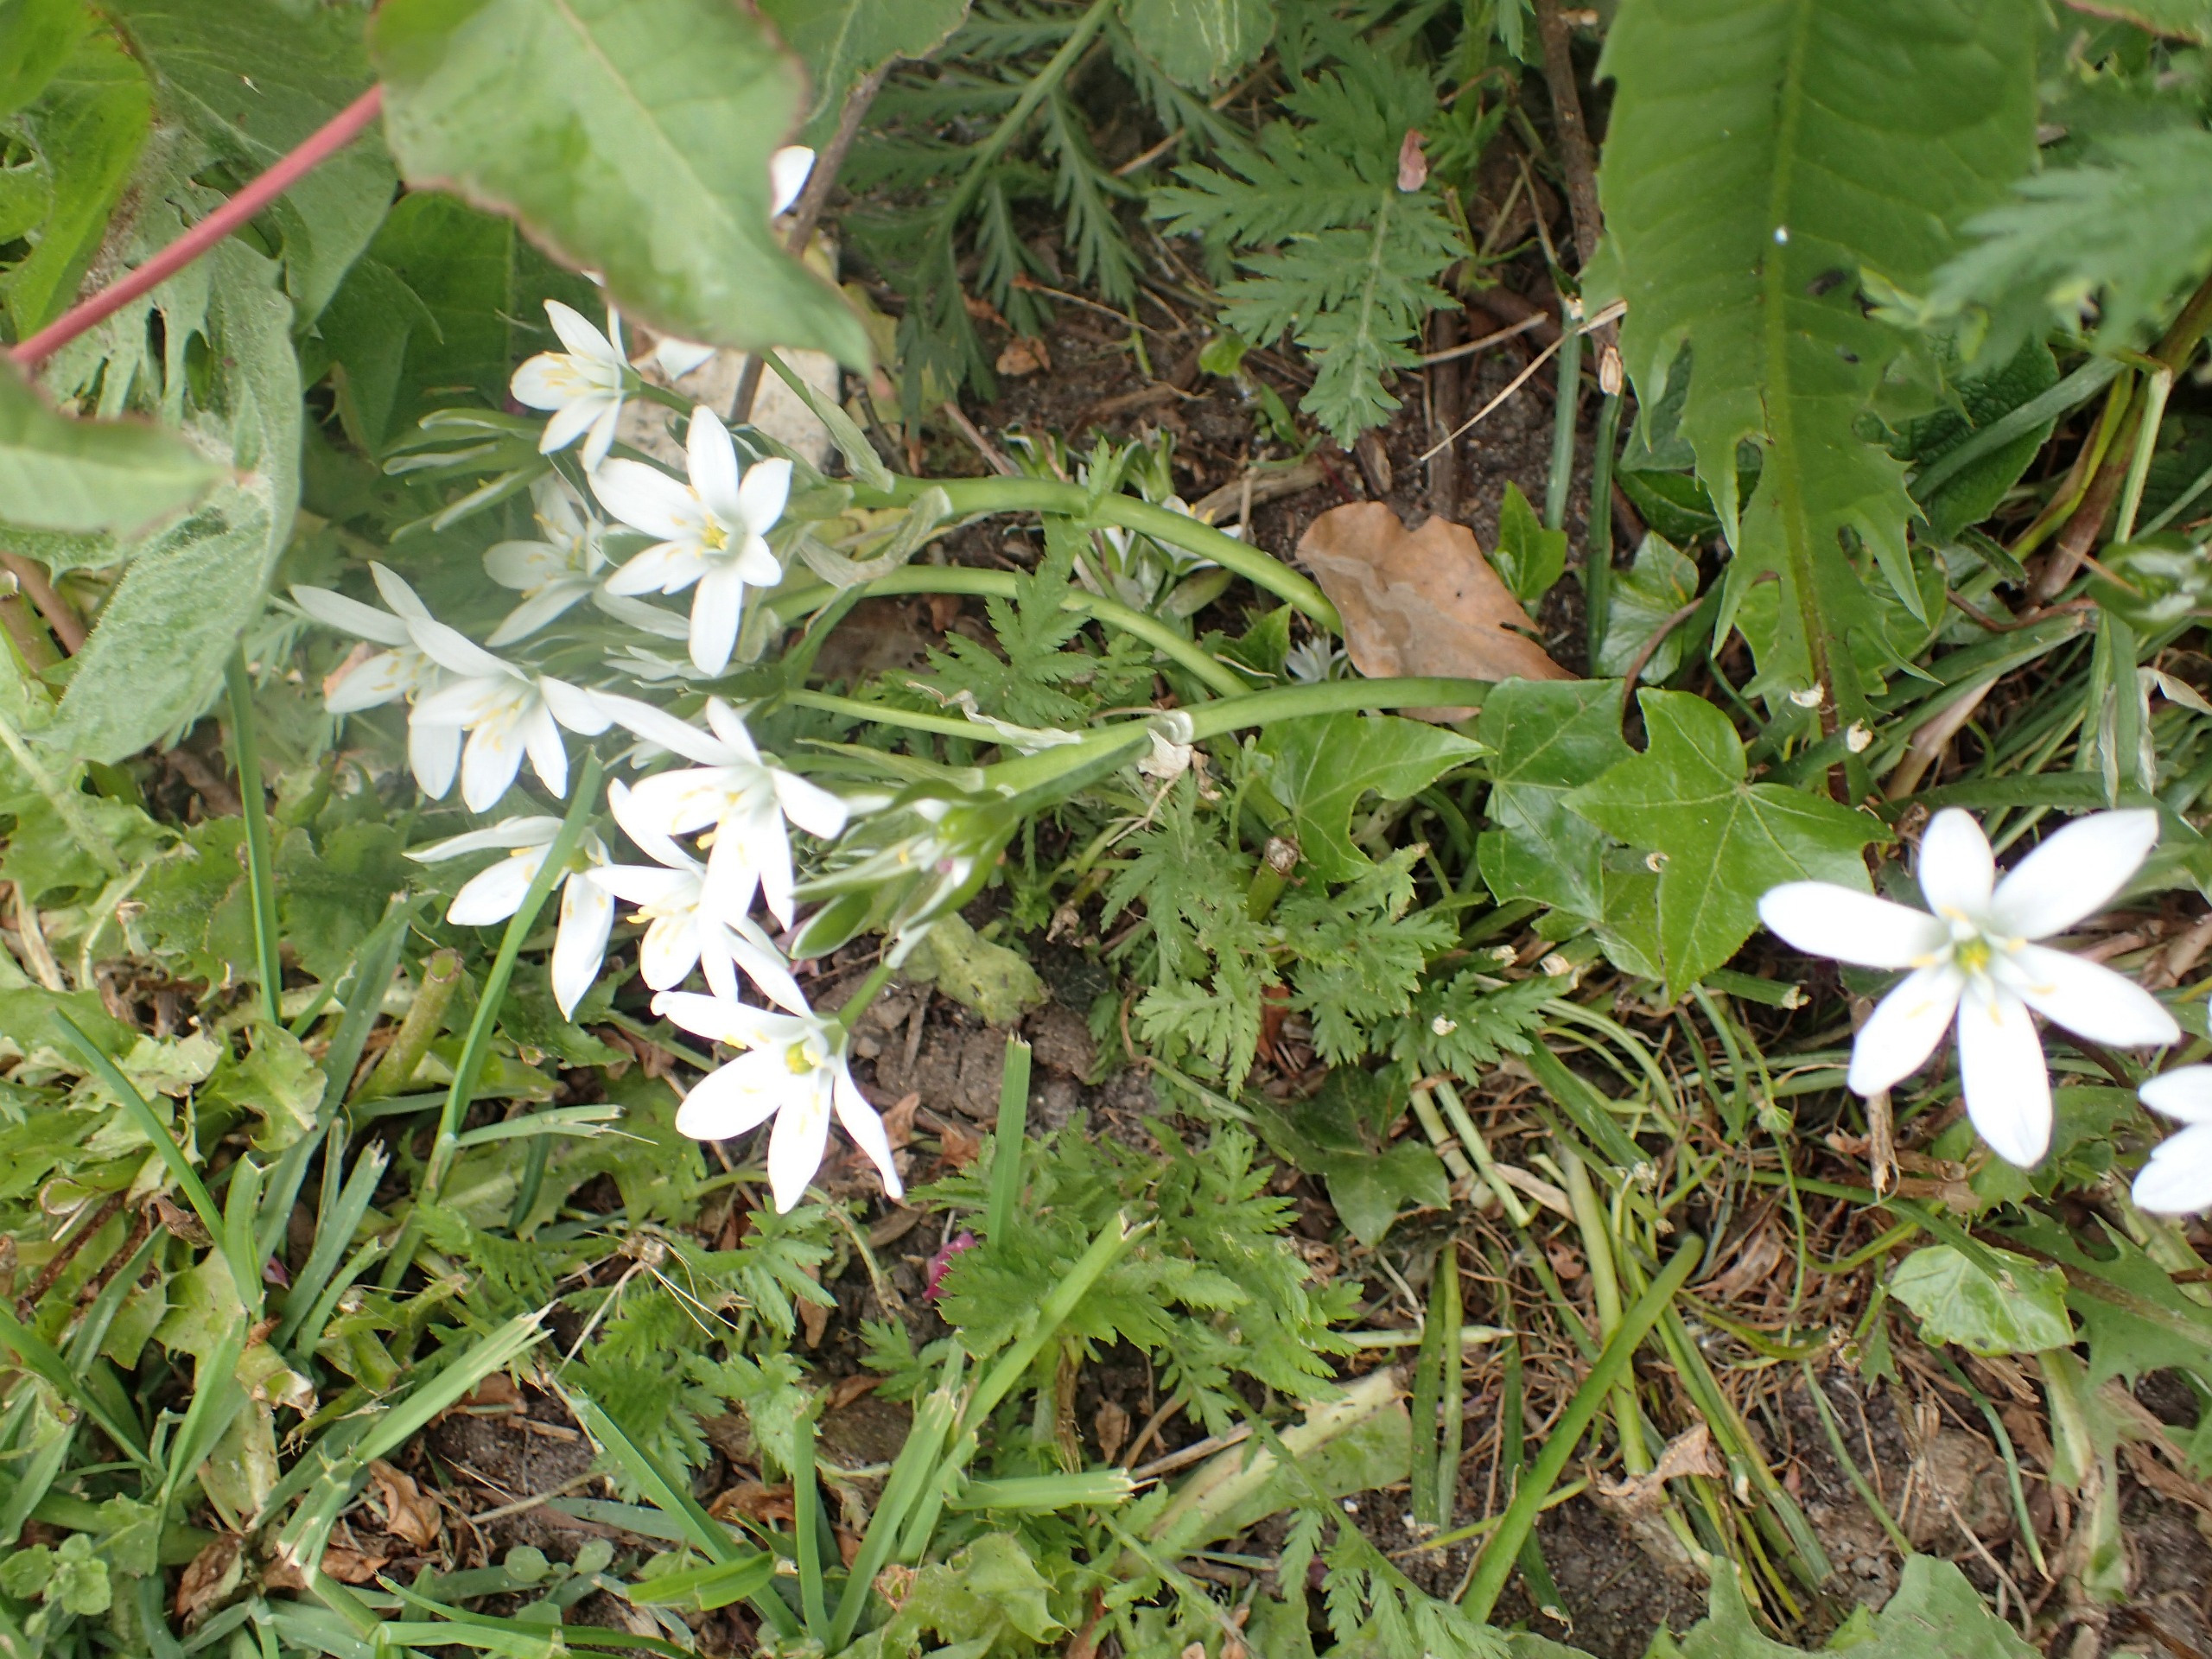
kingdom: Plantae
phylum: Tracheophyta
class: Liliopsida
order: Asparagales
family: Asparagaceae
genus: Ornithogalum
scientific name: Ornithogalum umbellatum
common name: Kost-fuglemælk
